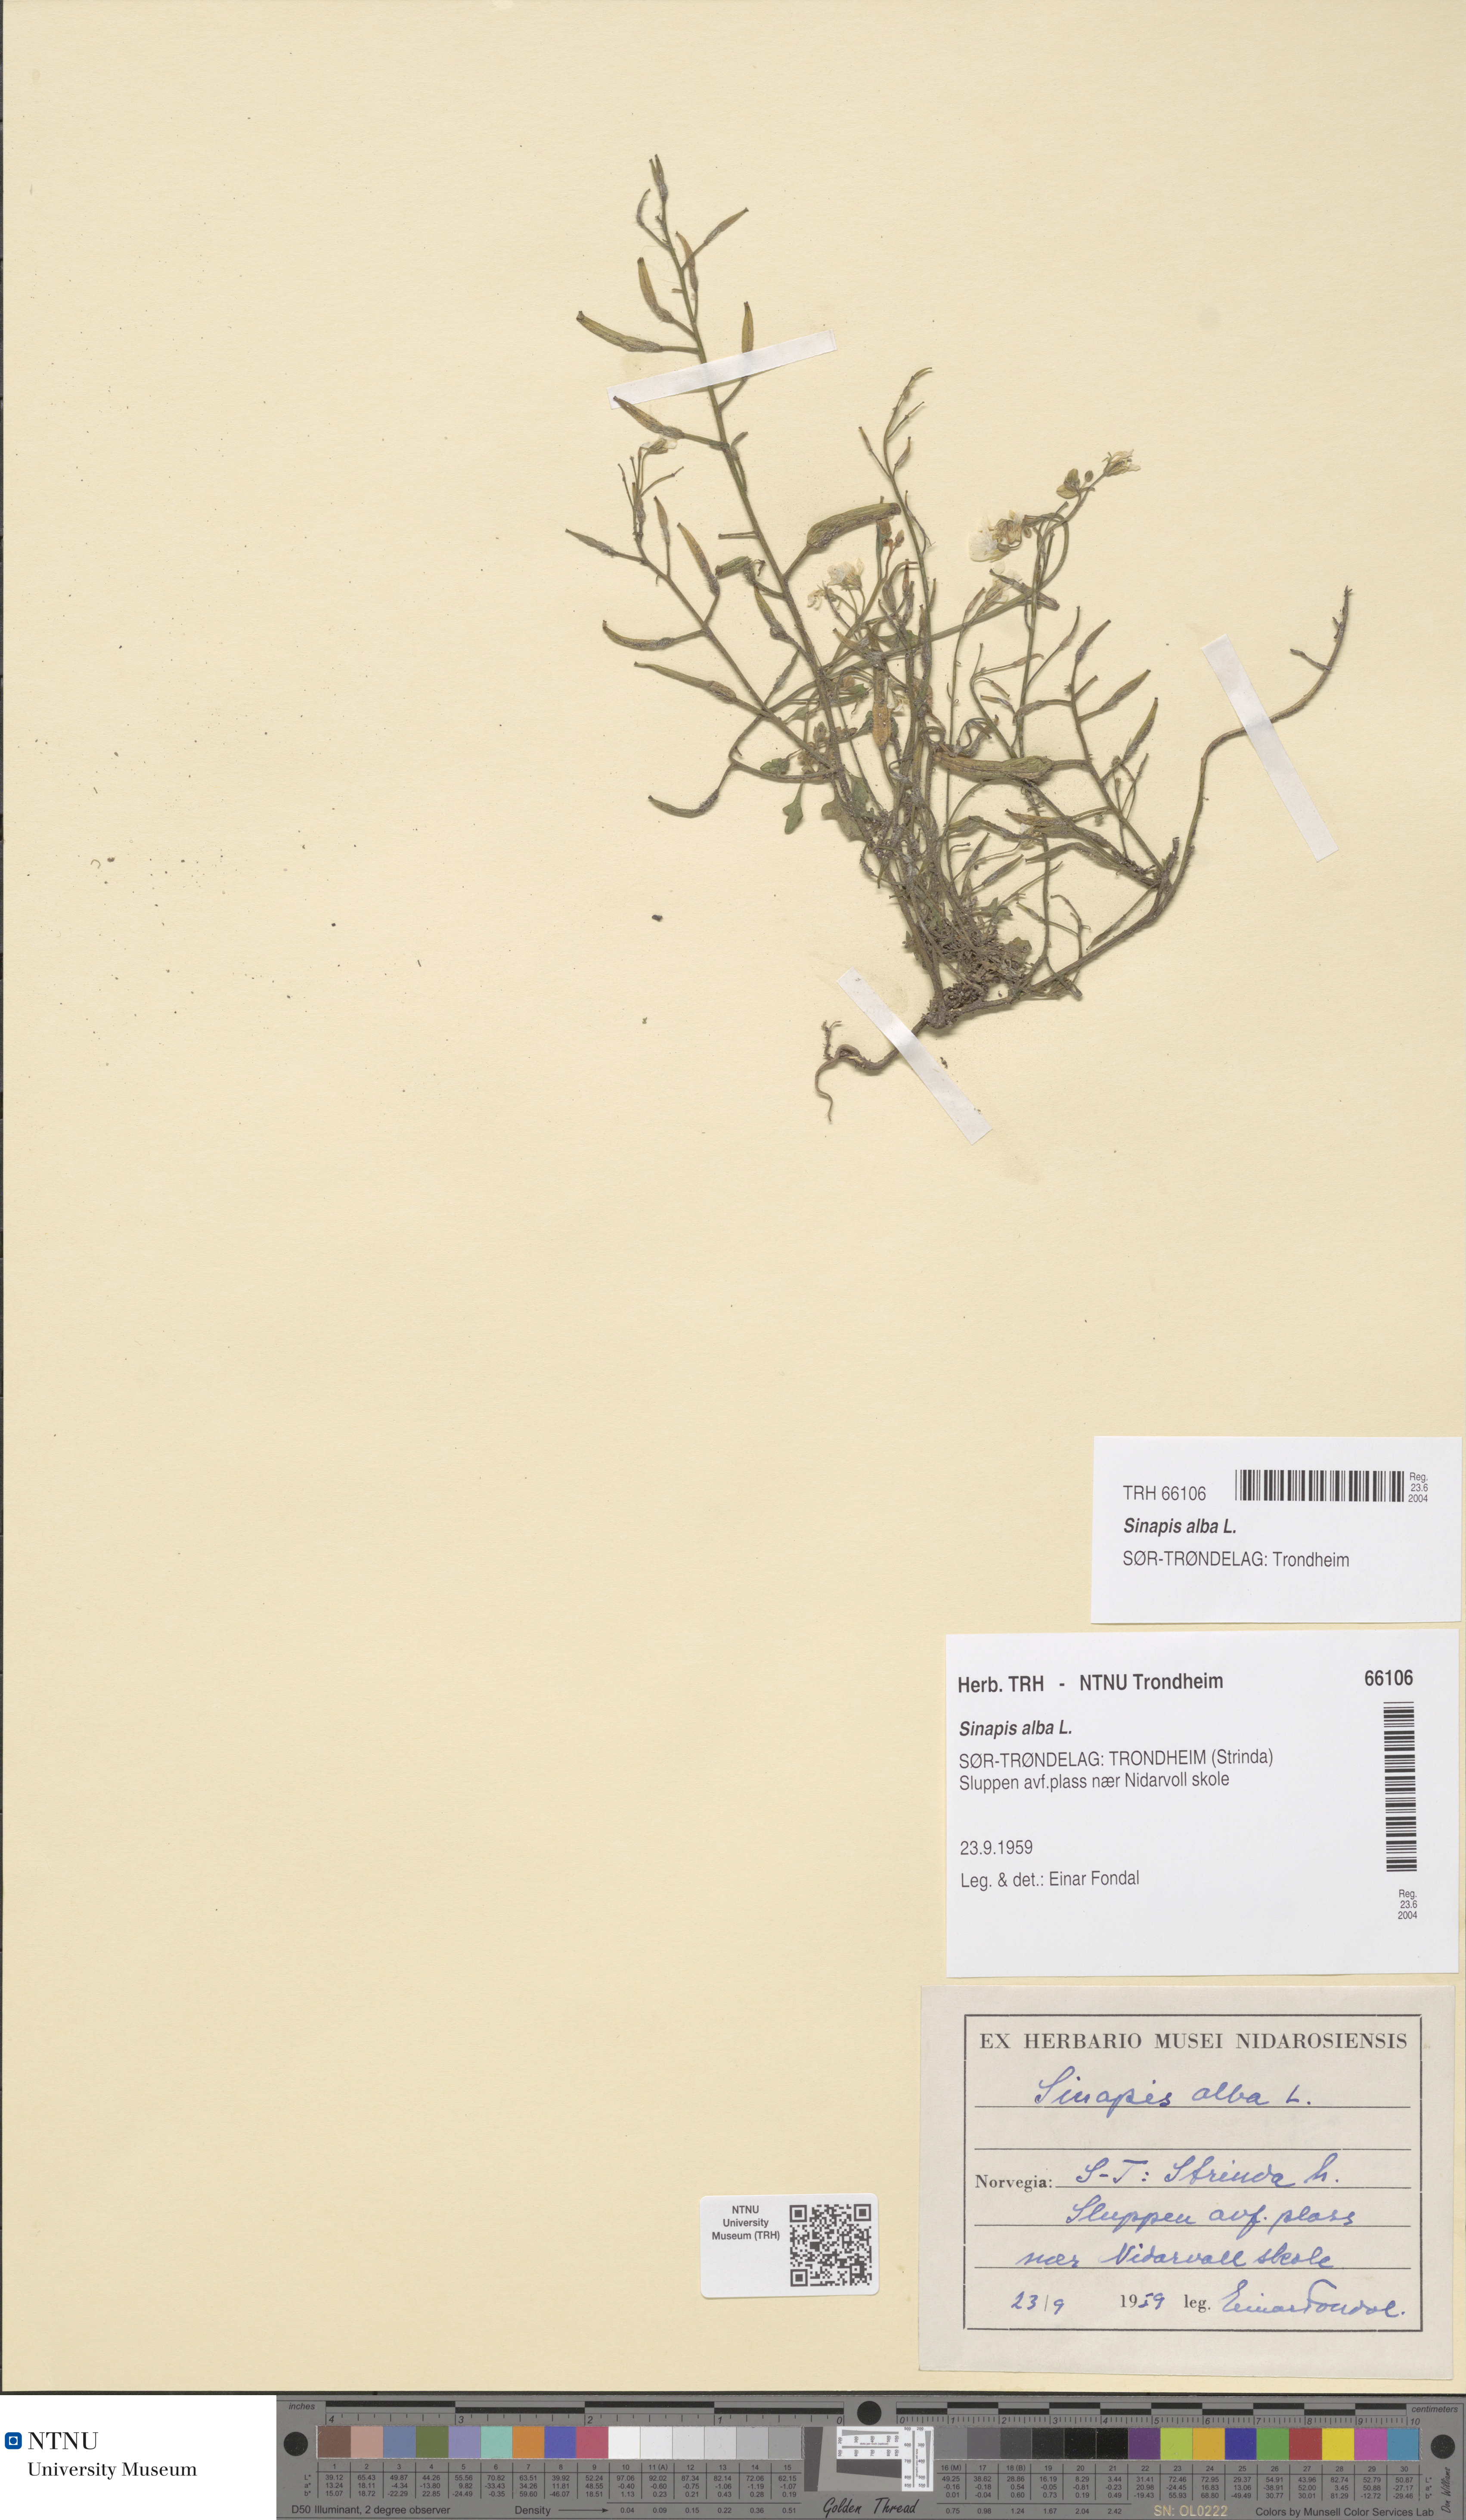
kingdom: Plantae
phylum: Tracheophyta
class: Magnoliopsida
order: Brassicales
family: Brassicaceae
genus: Sinapis
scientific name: Sinapis alba
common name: White mustard
